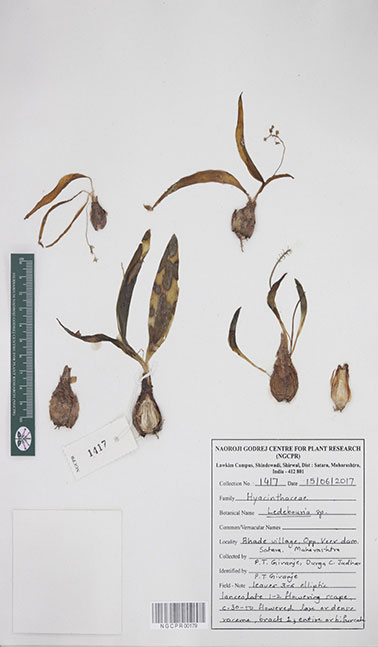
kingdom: Plantae
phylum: Tracheophyta
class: Liliopsida
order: Asparagales
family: Asparagaceae
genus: Ledebouria
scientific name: Ledebouria
